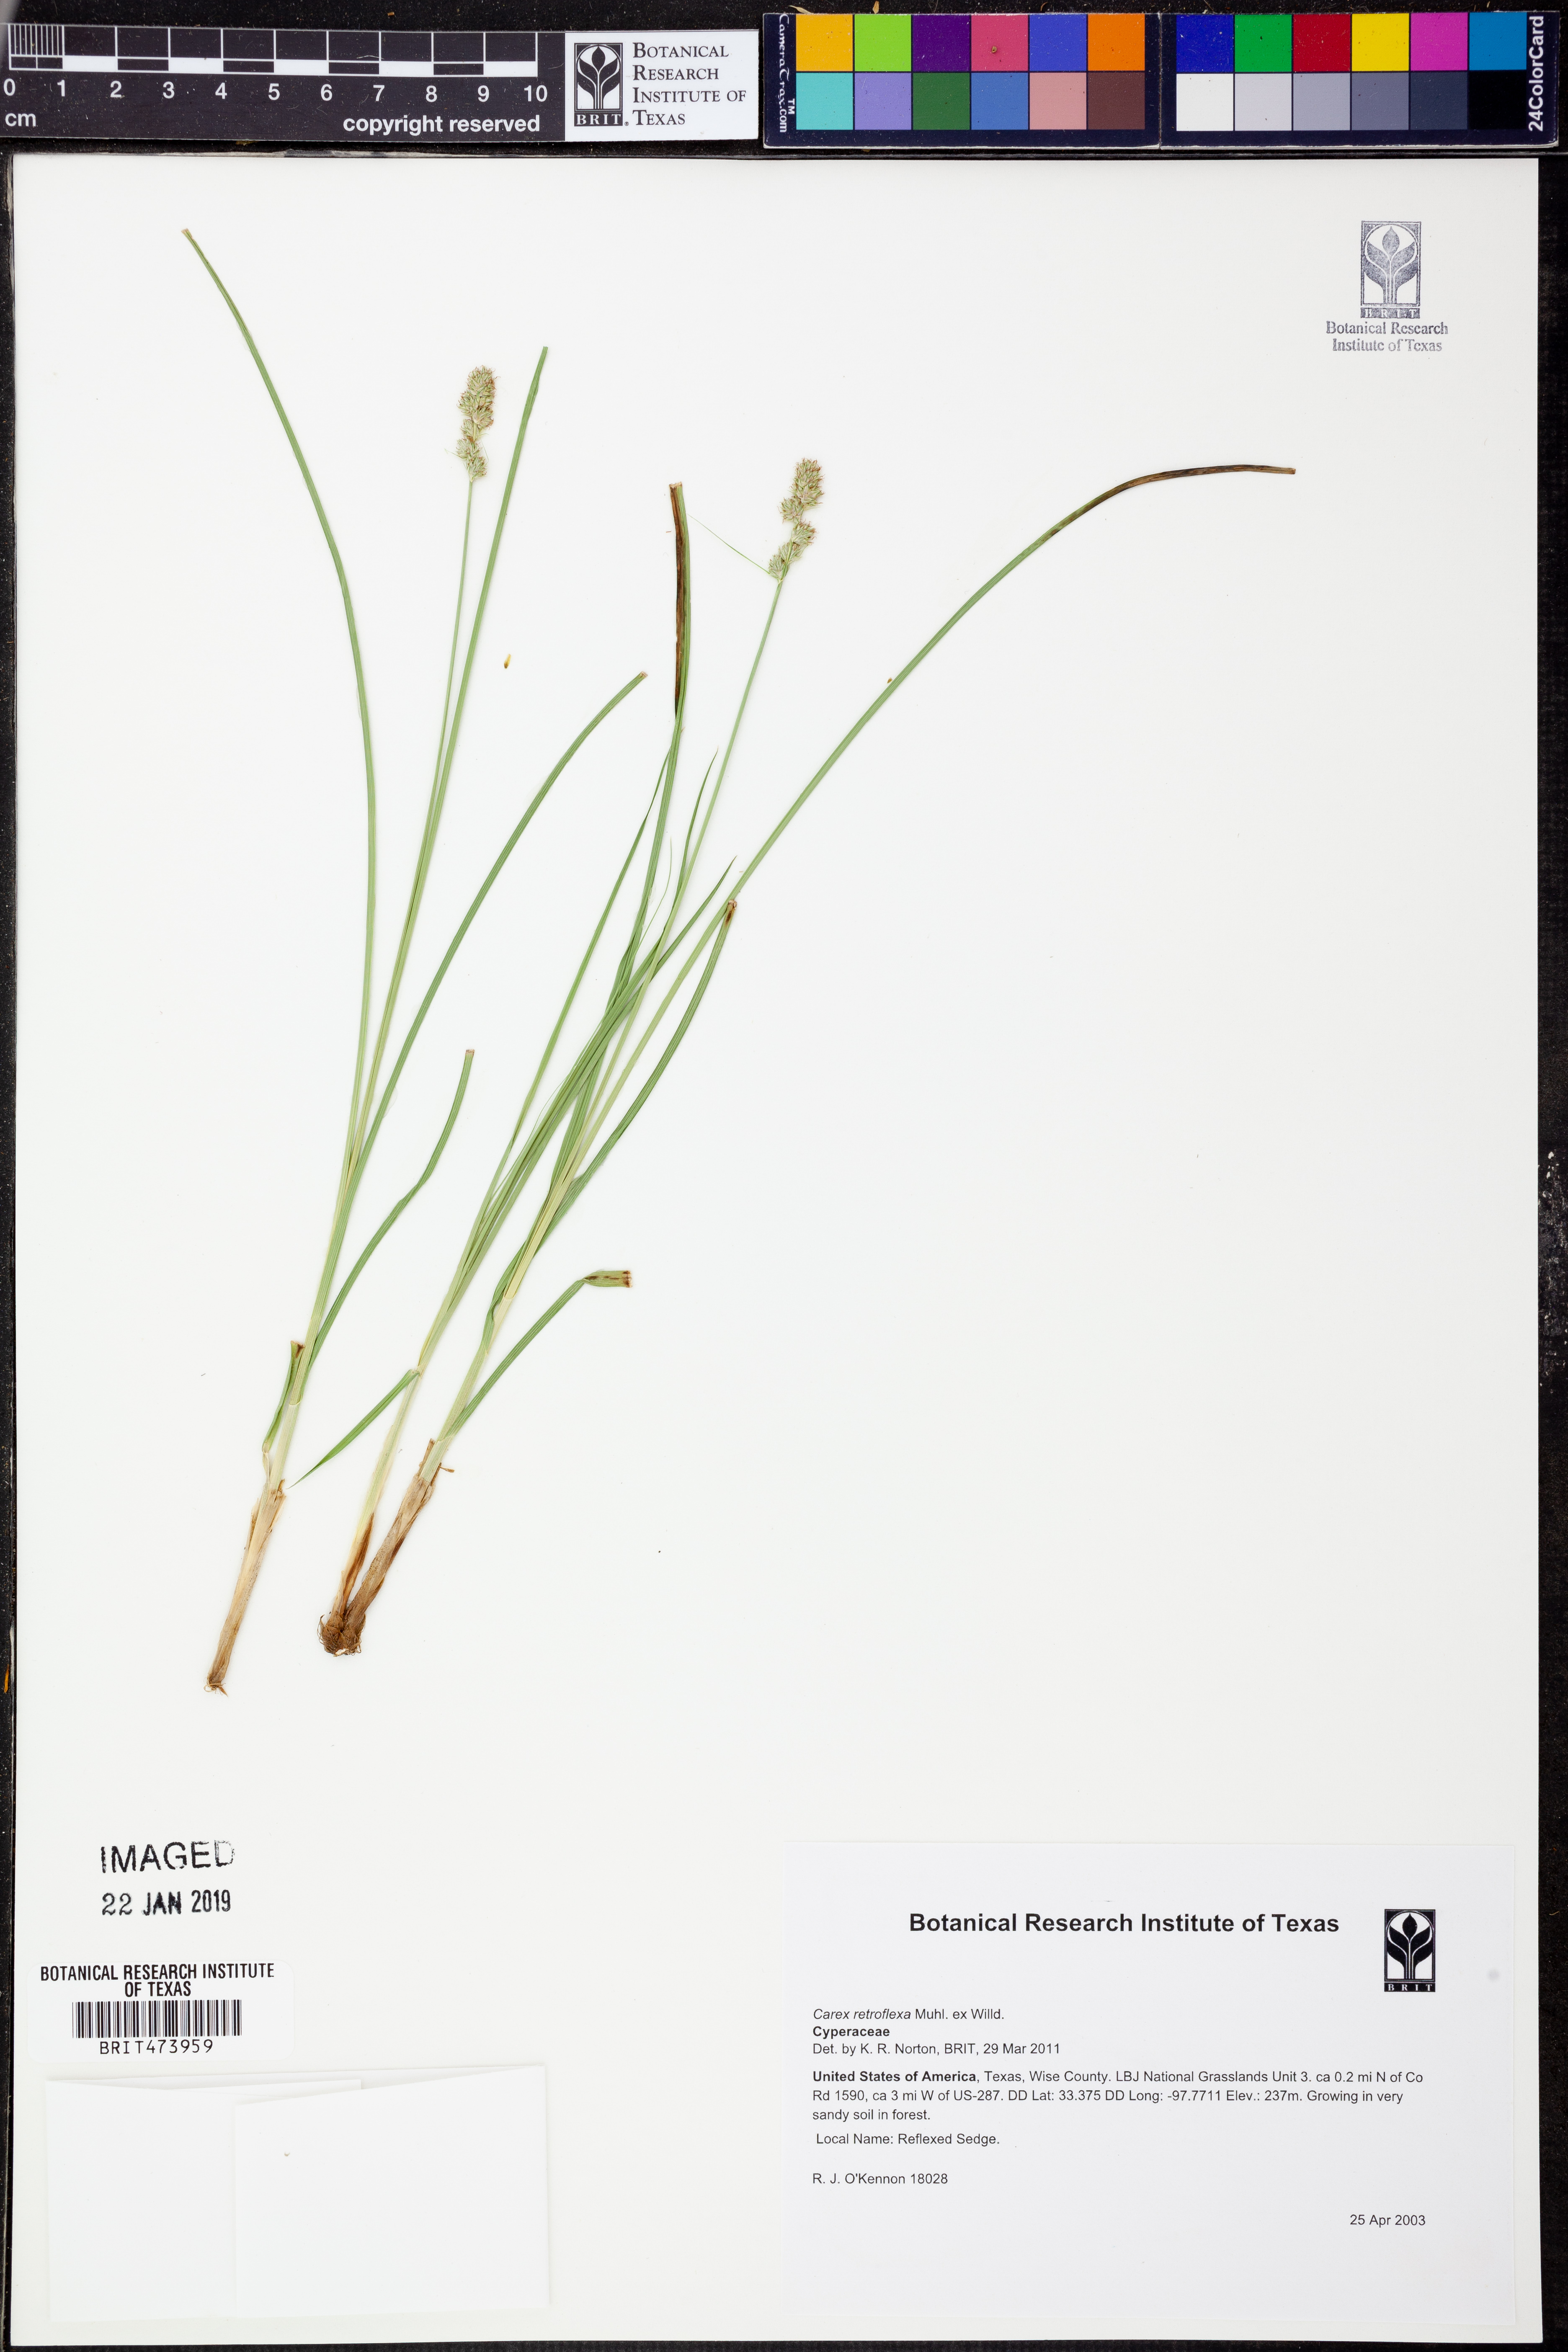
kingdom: Plantae
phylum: Tracheophyta
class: Liliopsida
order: Poales
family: Cyperaceae
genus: Carex
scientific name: Carex retroflexa
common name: Reflexed sedge
